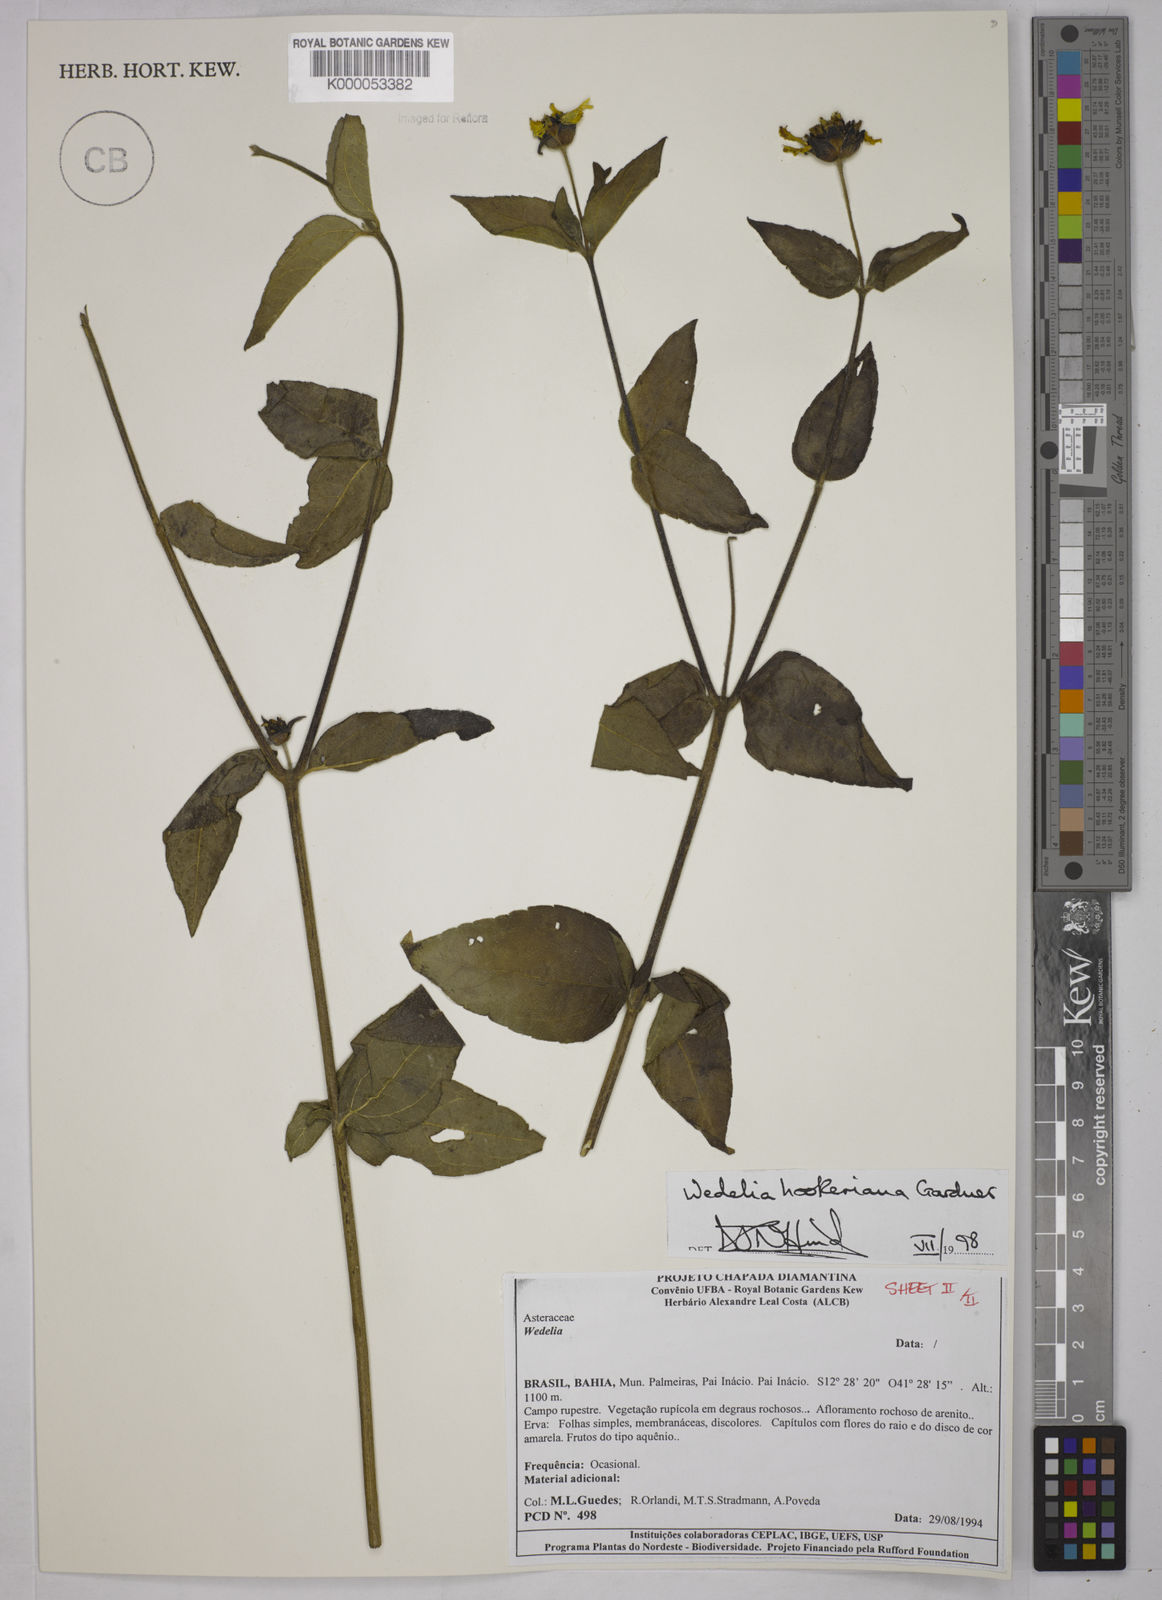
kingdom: Plantae
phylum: Tracheophyta
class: Magnoliopsida
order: Asterales
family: Asteraceae
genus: Wedelia
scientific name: Wedelia hookeriana
